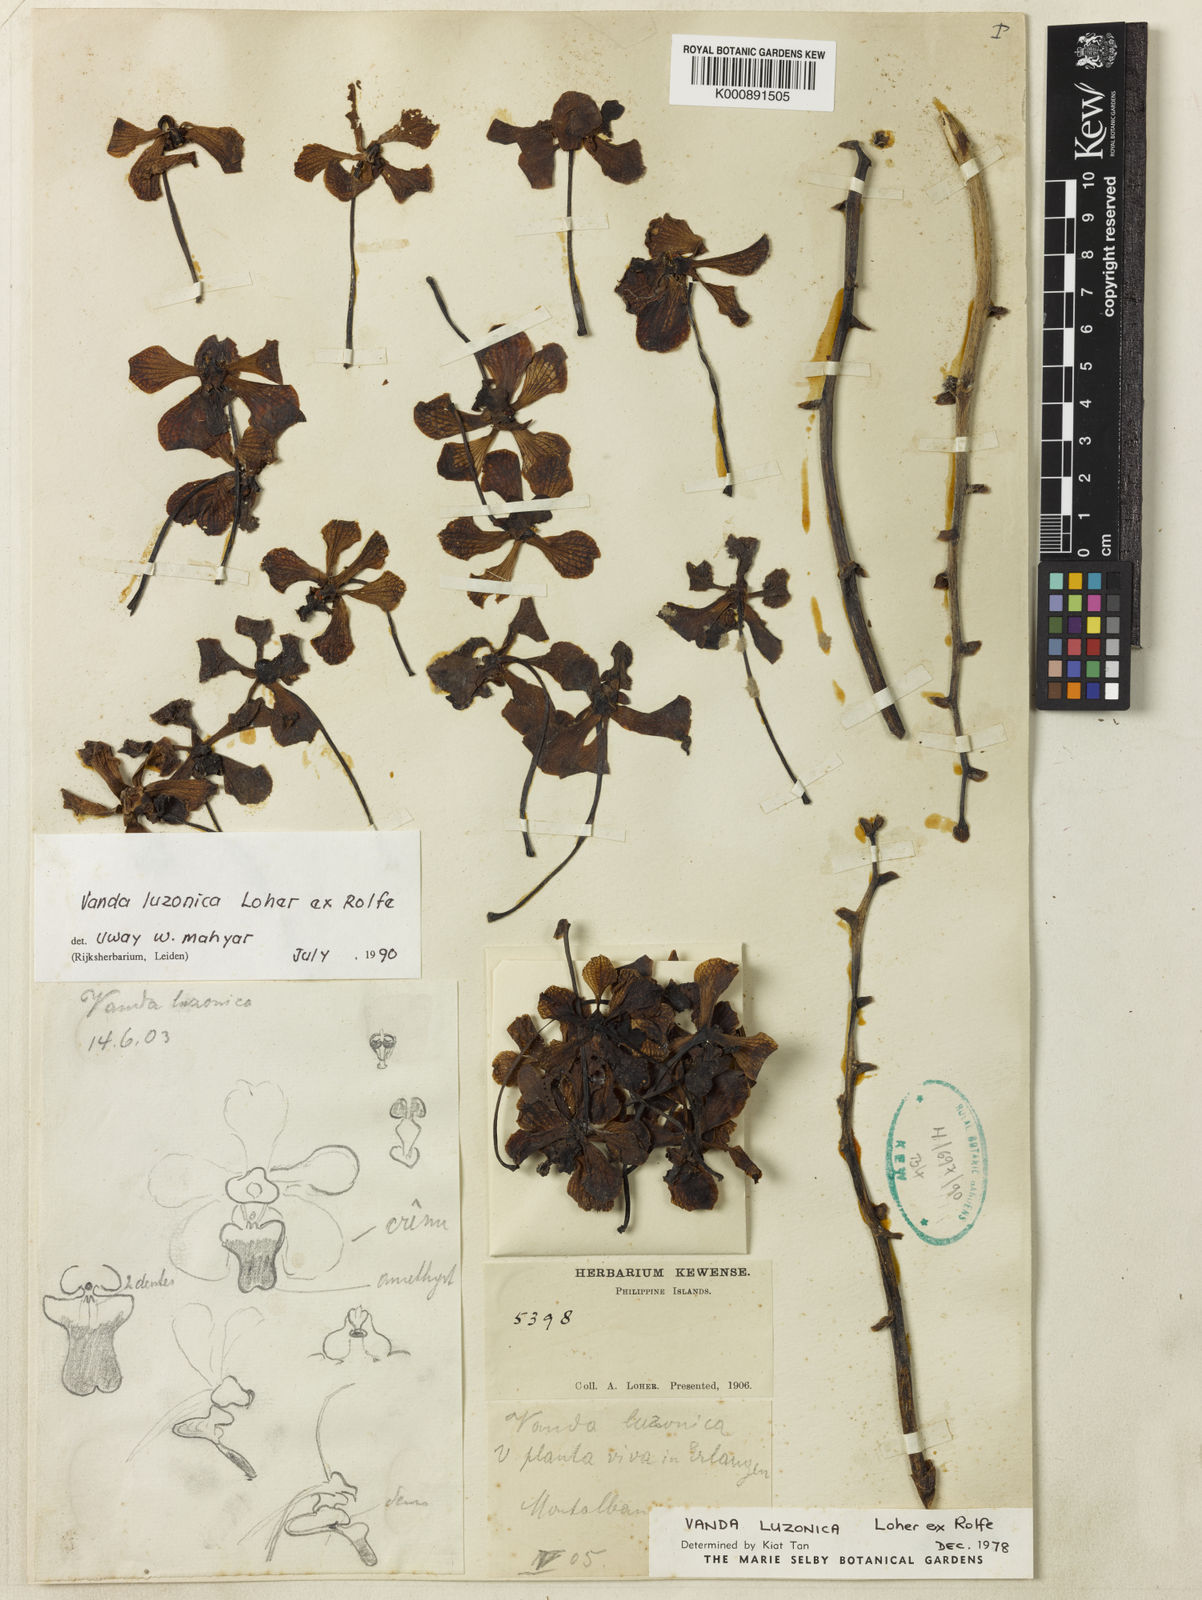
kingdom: Plantae
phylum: Tracheophyta
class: Liliopsida
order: Asparagales
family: Orchidaceae
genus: Vanda
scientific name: Vanda luzonica
